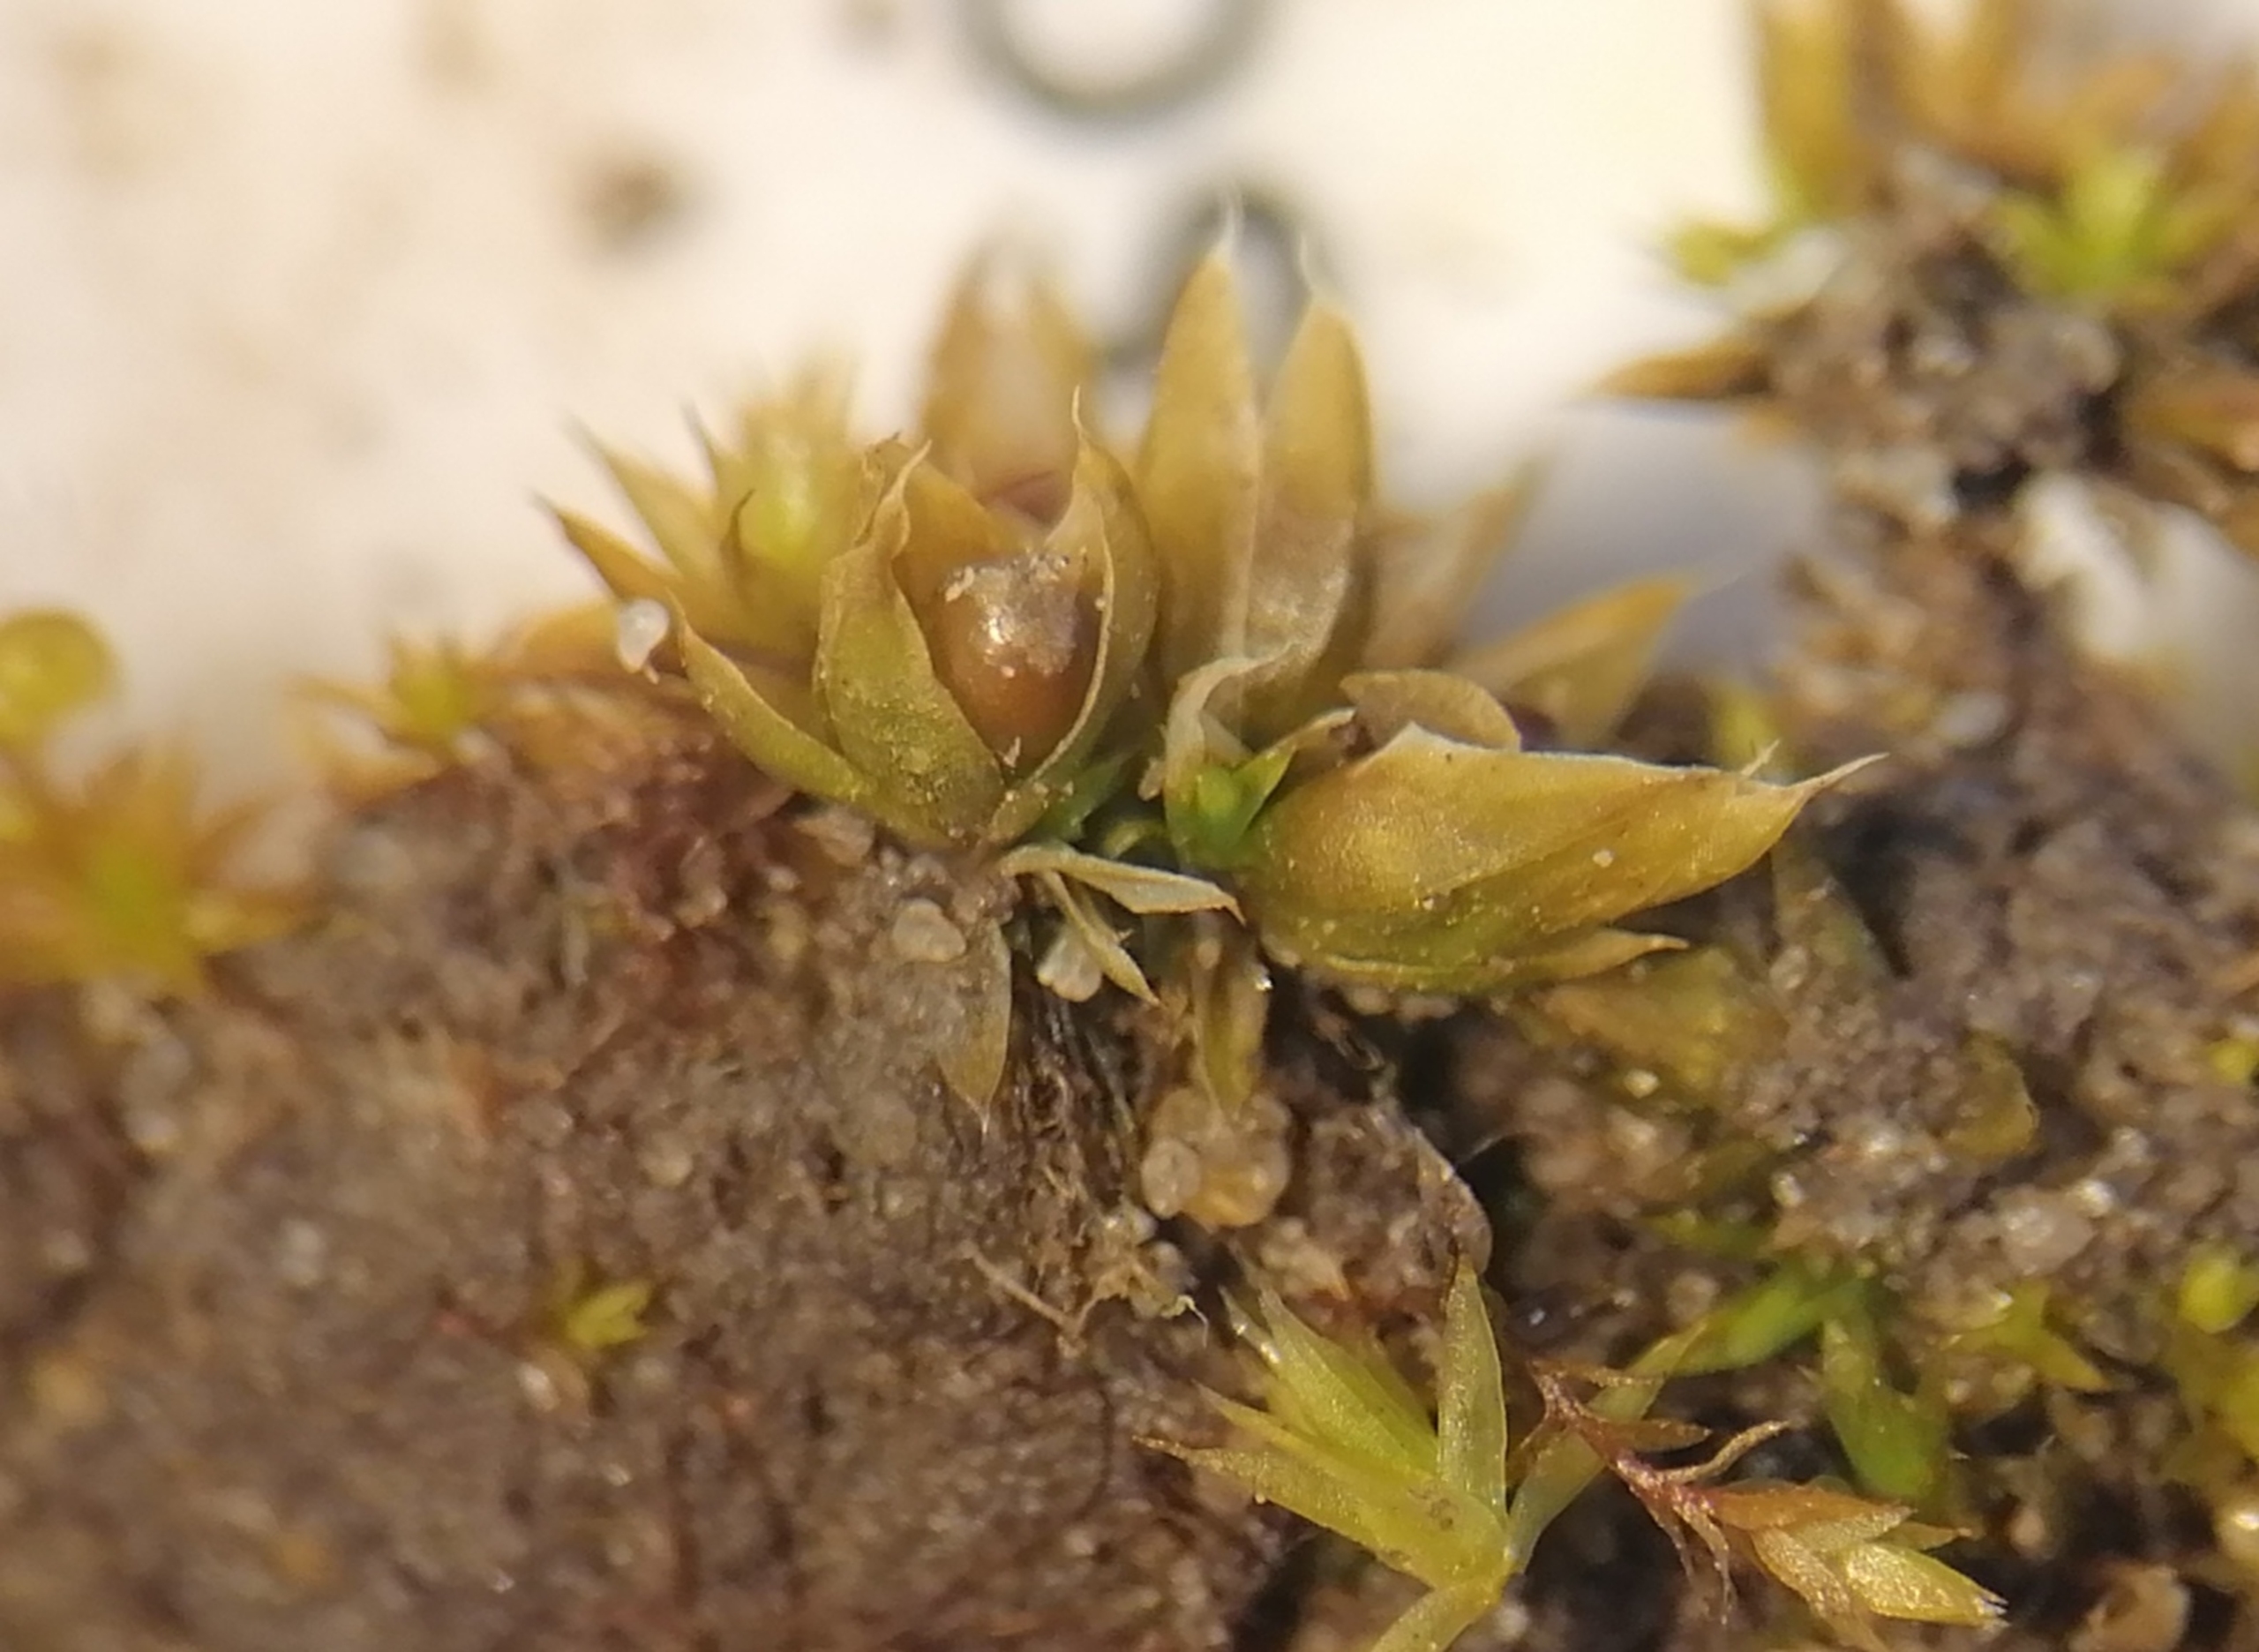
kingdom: Plantae
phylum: Bryophyta
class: Bryopsida
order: Pottiales
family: Pottiaceae
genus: Tortula
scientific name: Tortula acaulon
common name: Tilspidset dværgmos
